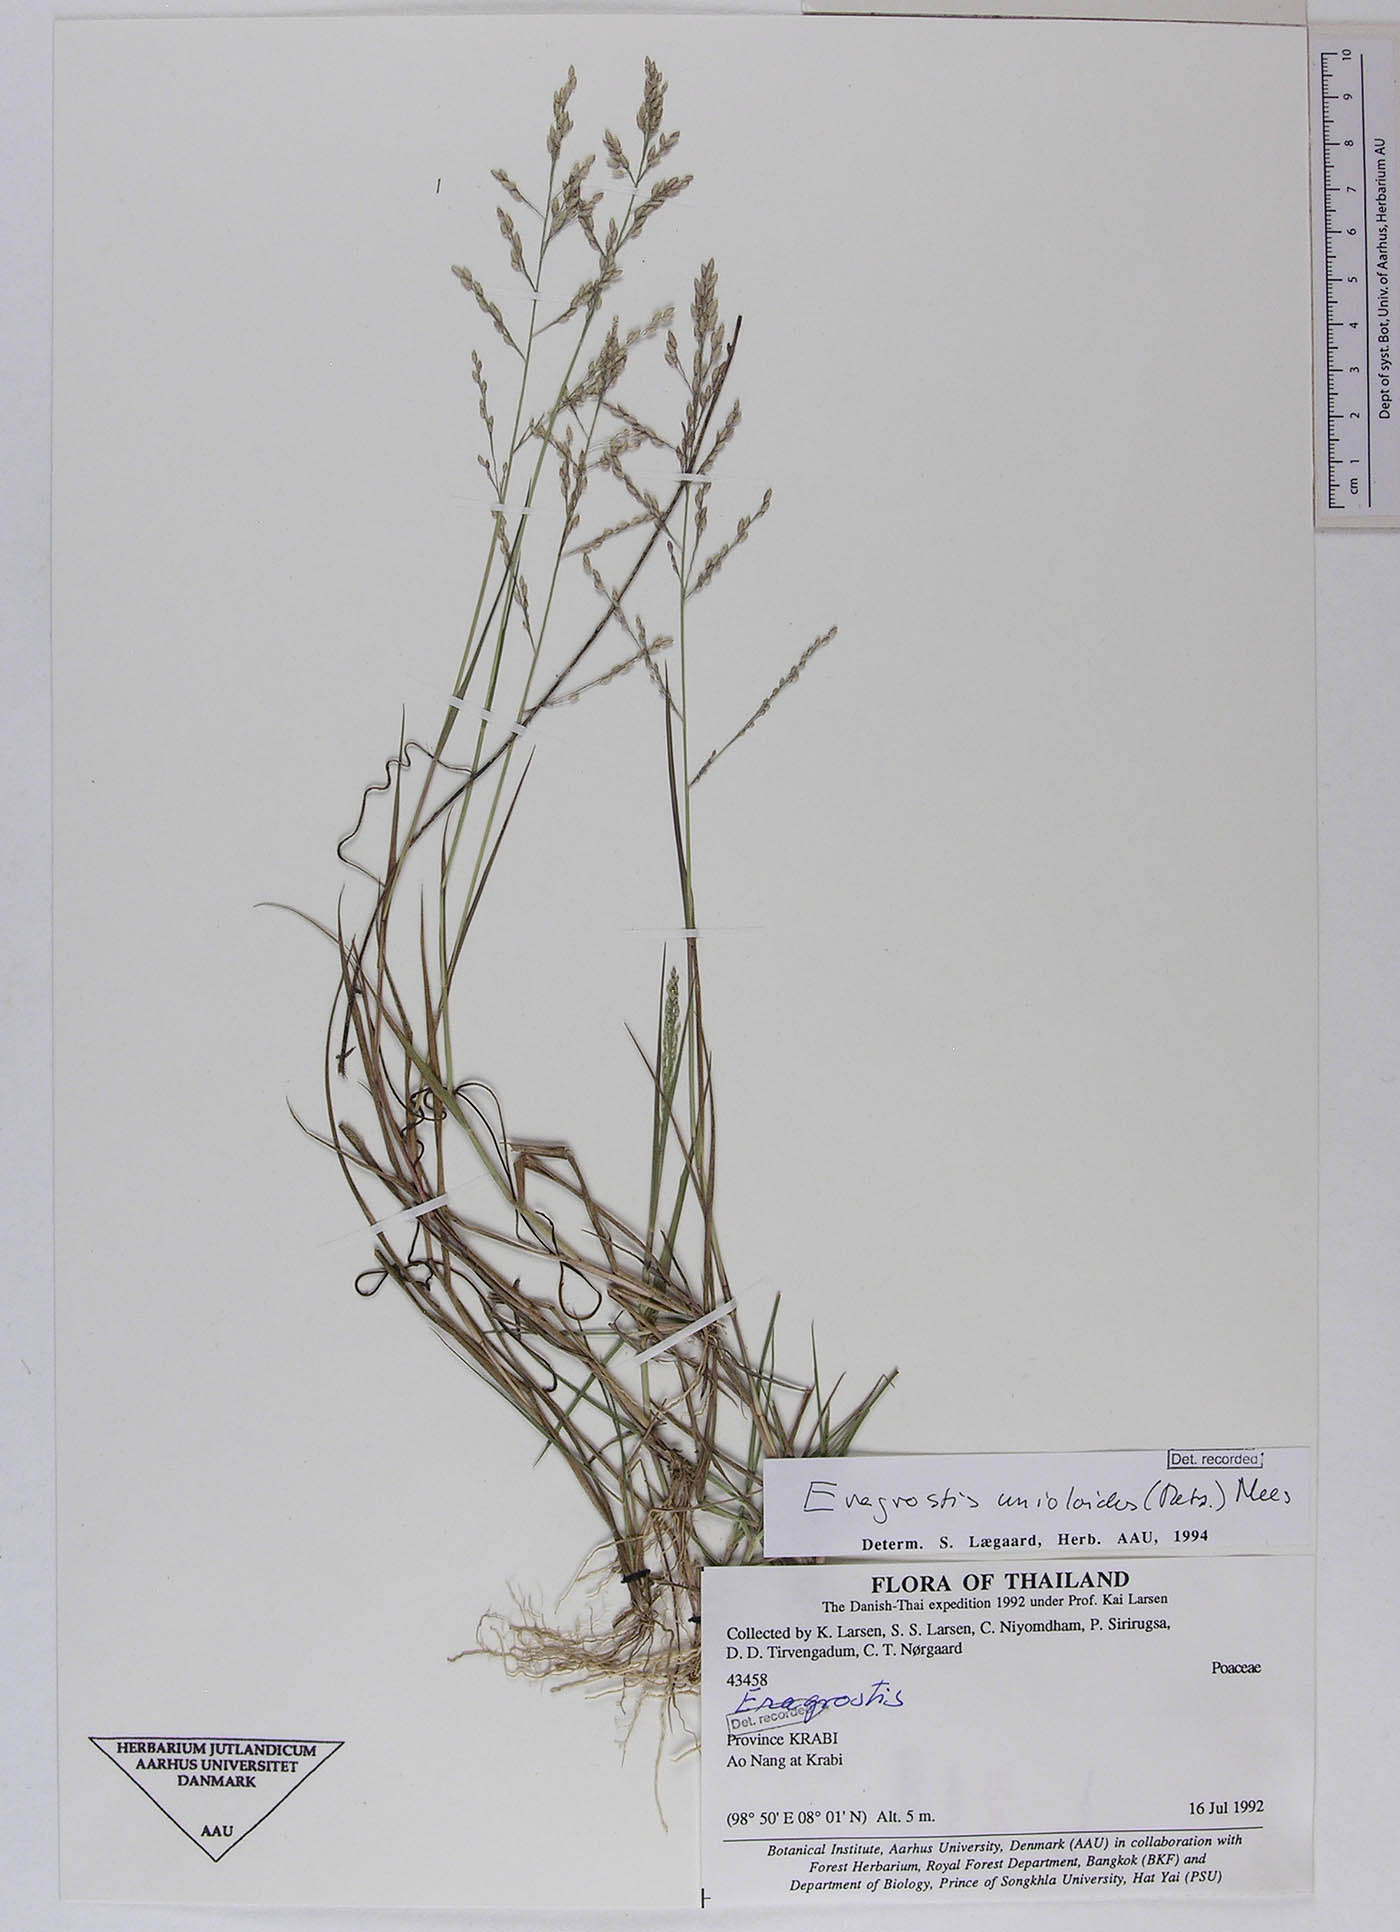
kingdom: Plantae
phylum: Tracheophyta
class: Liliopsida
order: Poales
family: Poaceae
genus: Eragrostis
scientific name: Eragrostis montana
